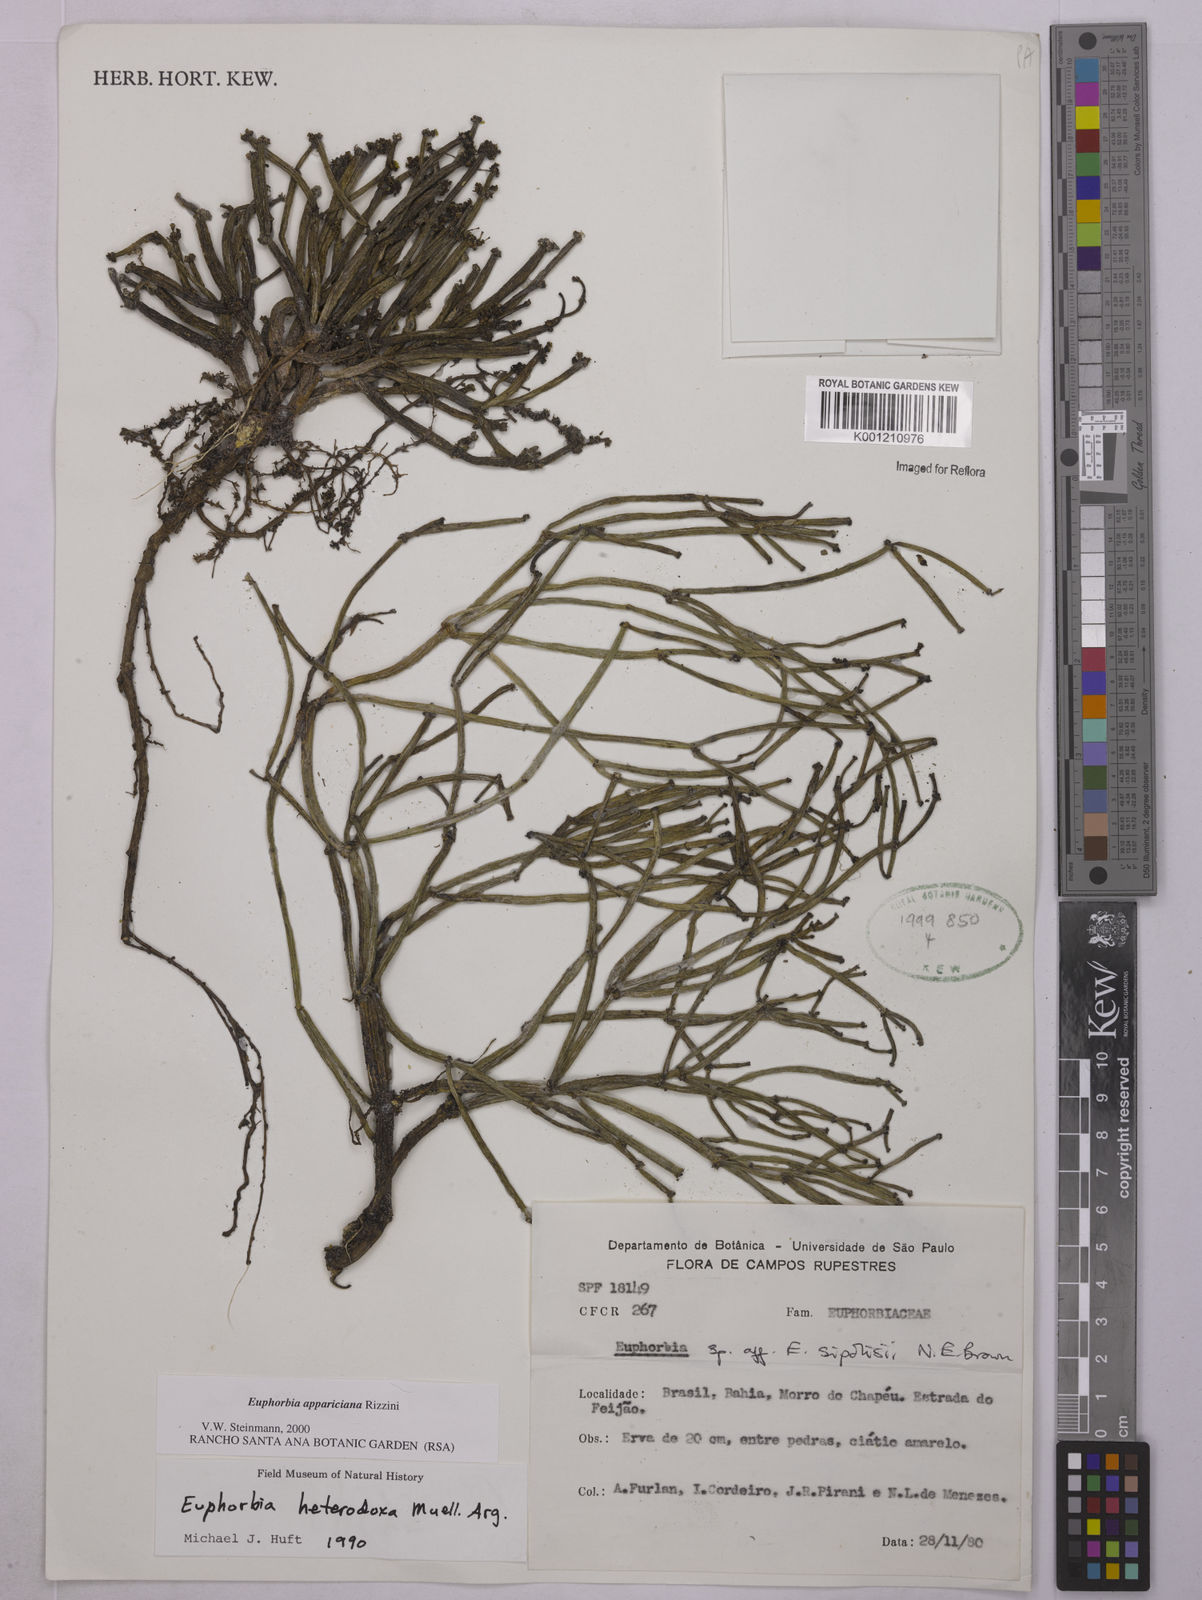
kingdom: Plantae
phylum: Tracheophyta
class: Magnoliopsida
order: Malpighiales
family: Euphorbiaceae
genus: Euphorbia
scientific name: Euphorbia appariciana
